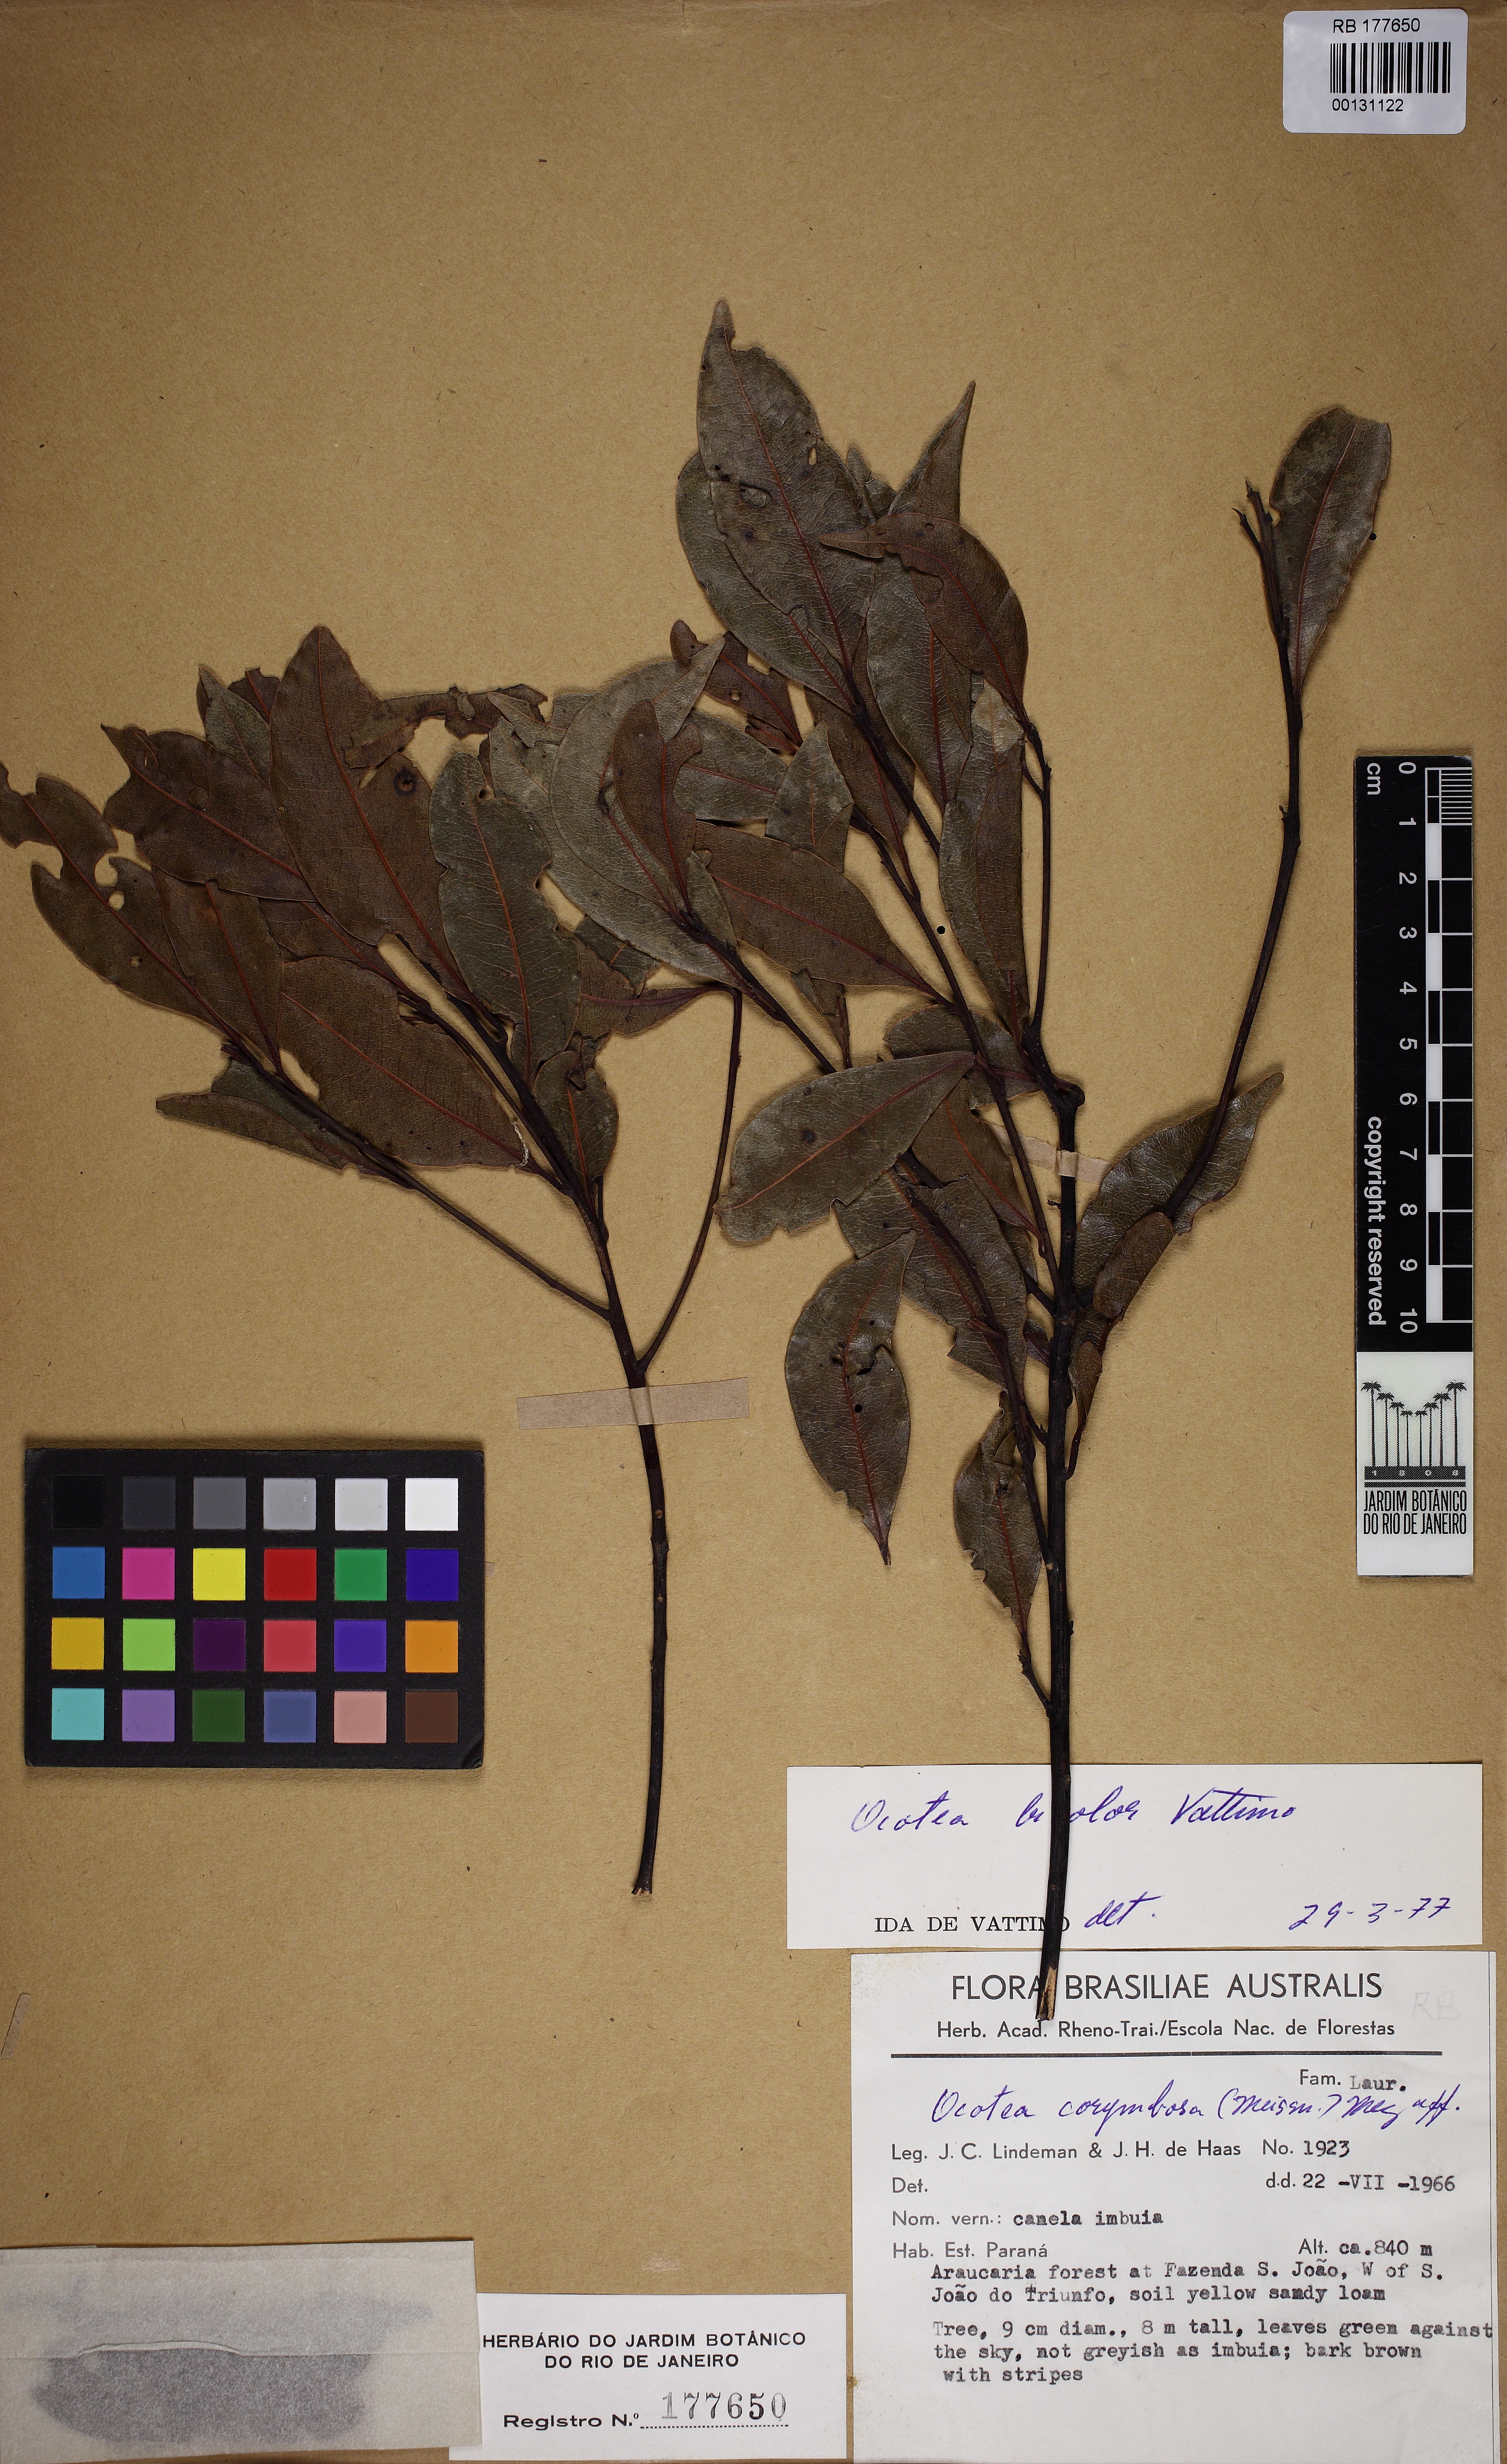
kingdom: Plantae
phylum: Tracheophyta
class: Magnoliopsida
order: Laurales
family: Lauraceae
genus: Ocotea
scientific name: Ocotea bicolor
